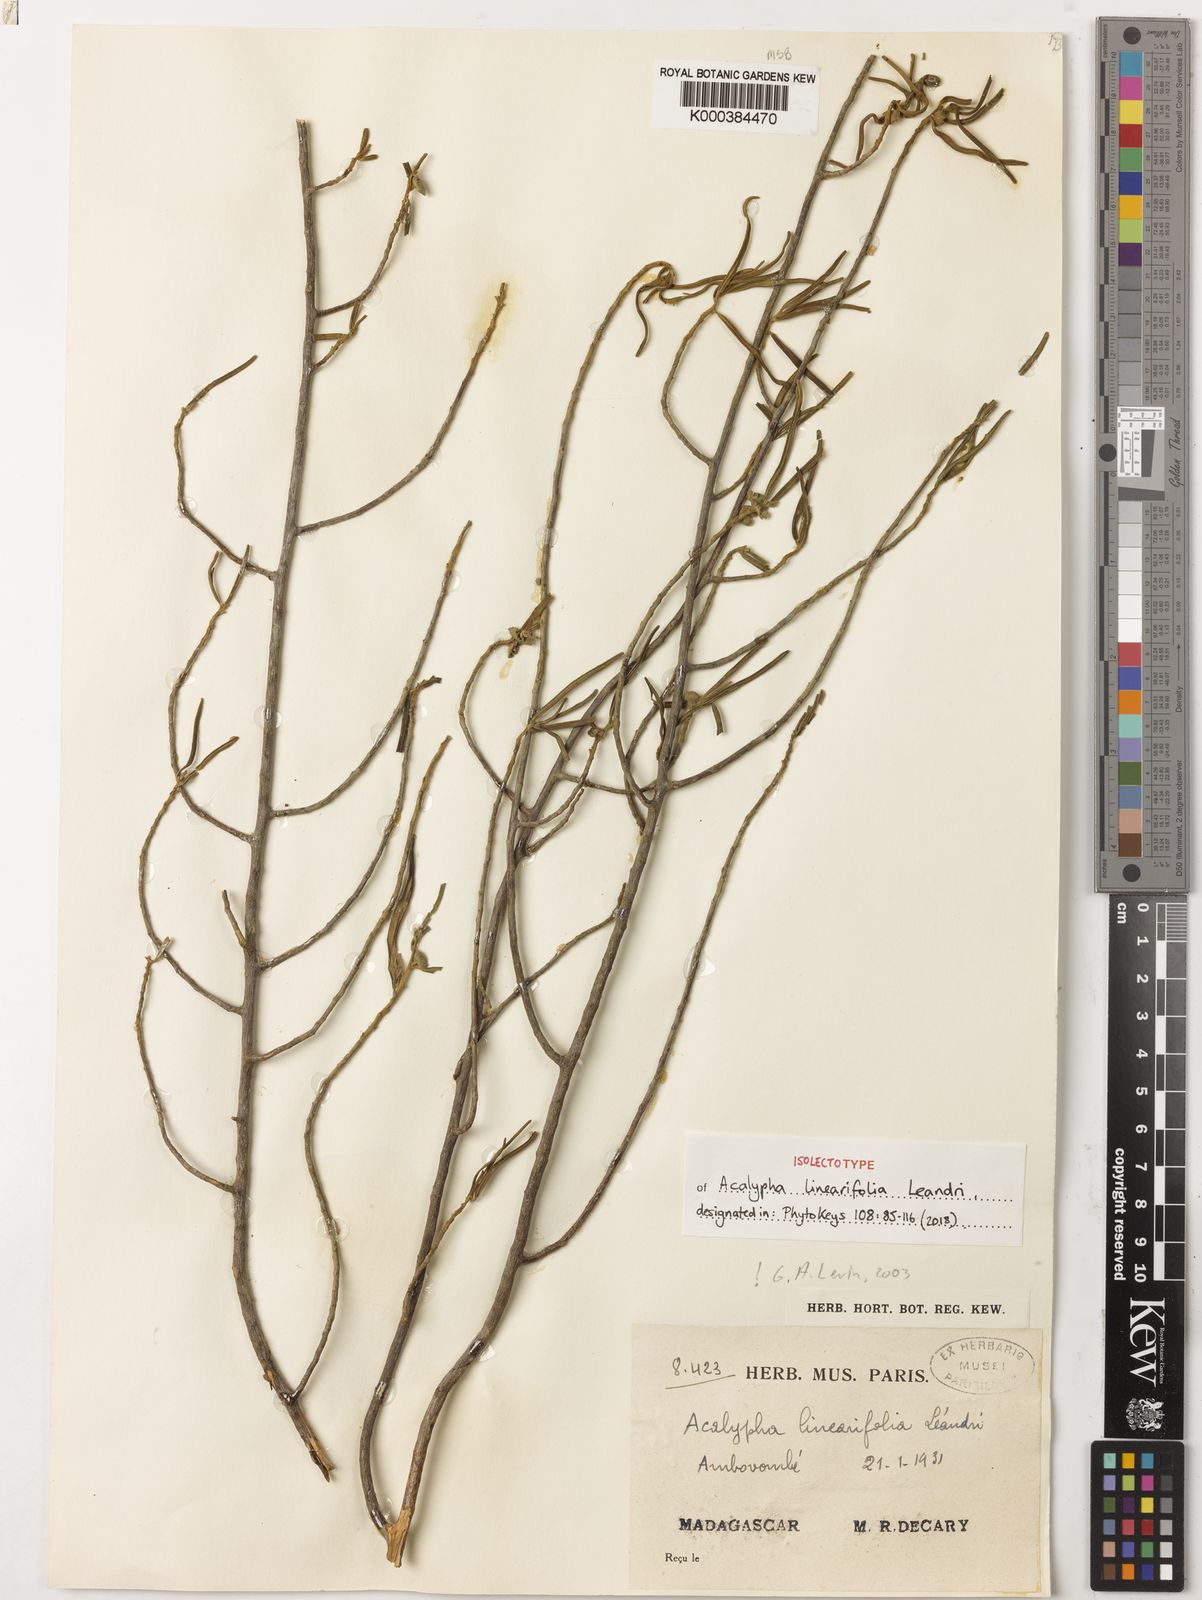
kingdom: Plantae
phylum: Tracheophyta
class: Magnoliopsida
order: Malpighiales
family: Euphorbiaceae
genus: Acalypha
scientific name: Acalypha linearifolia
